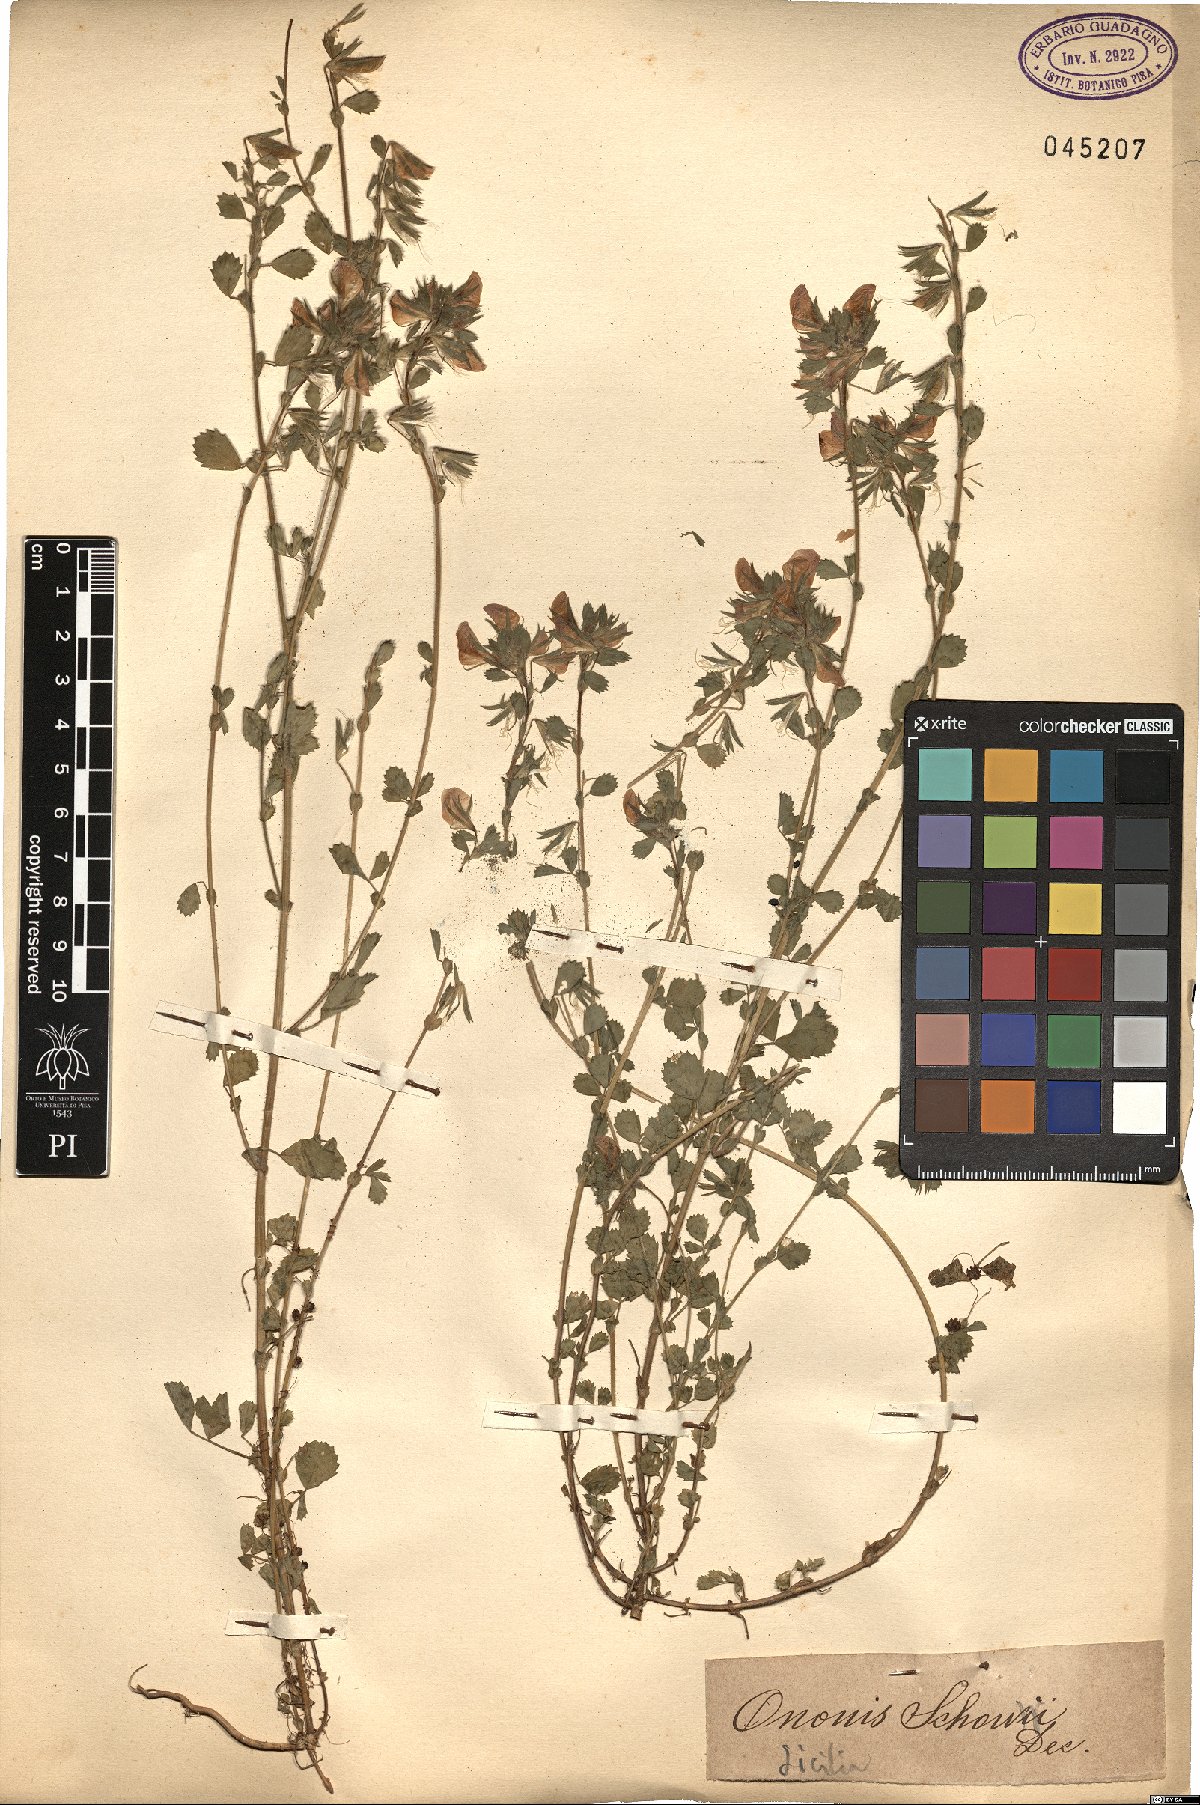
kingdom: Plantae
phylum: Tracheophyta
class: Magnoliopsida
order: Fabales
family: Fabaceae
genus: Ononis
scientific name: Ononis pendula
